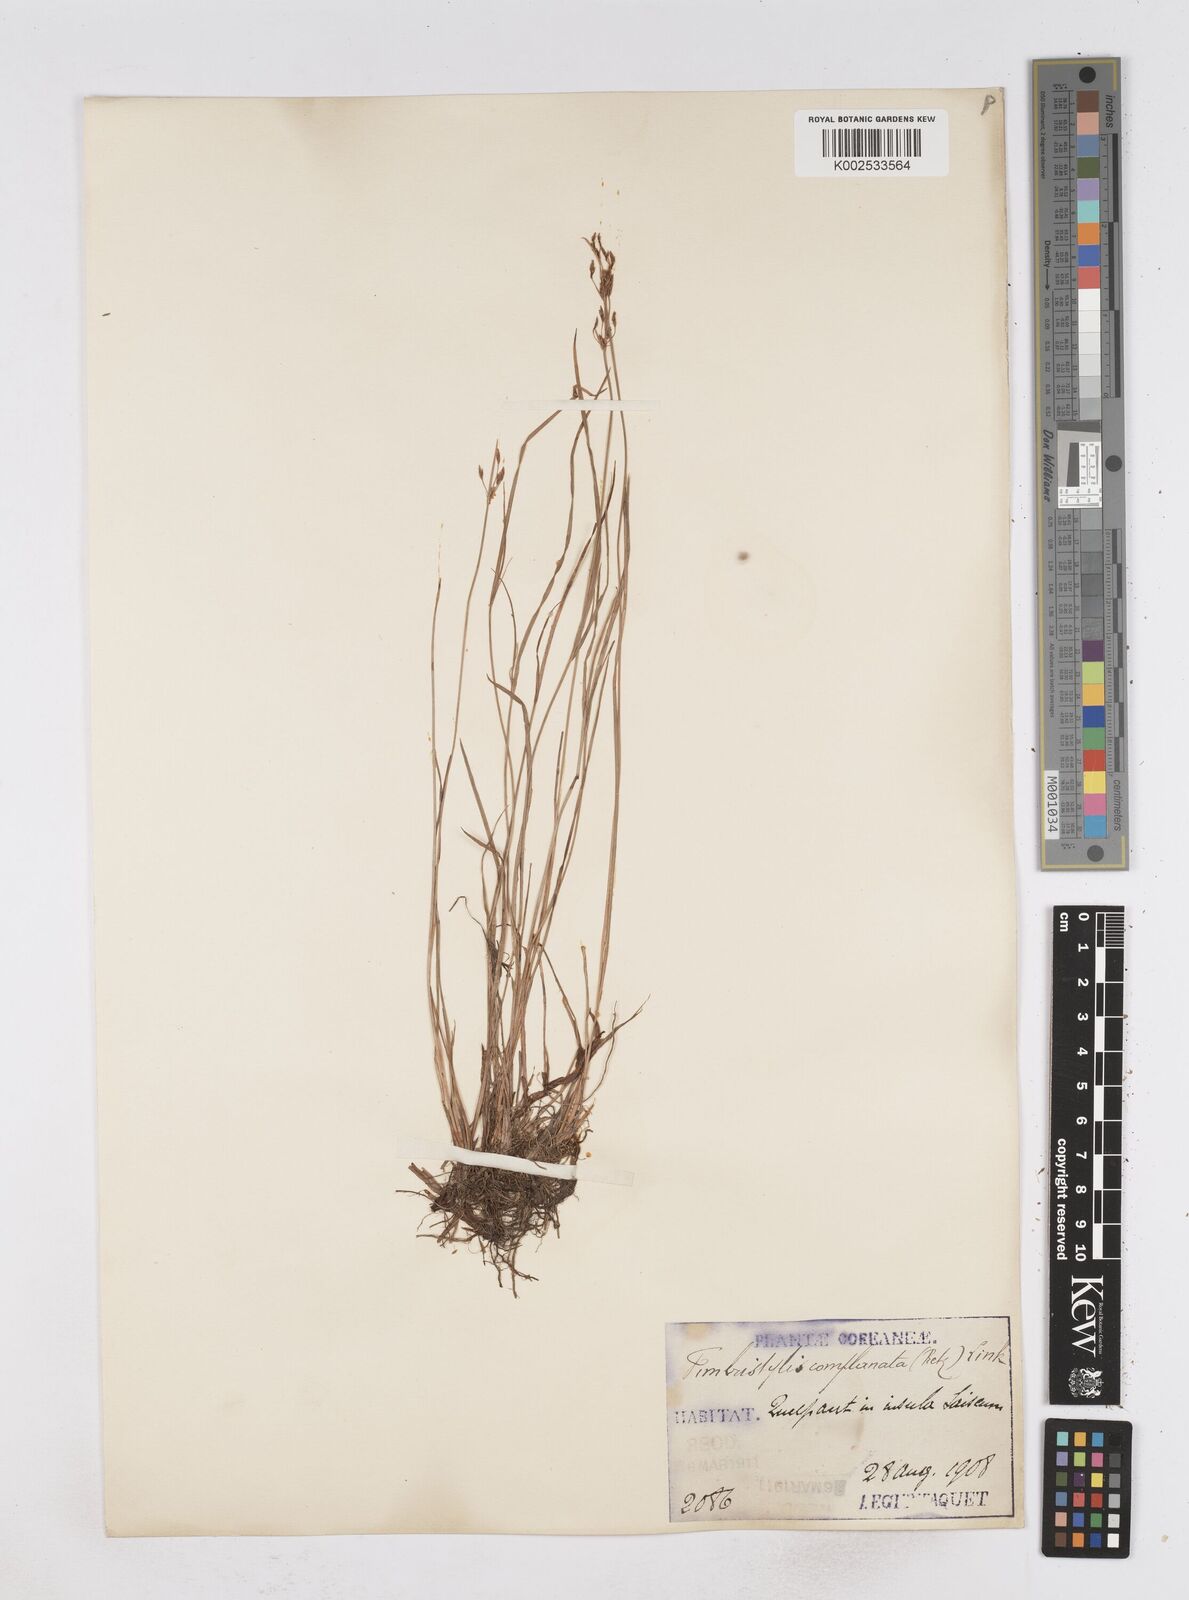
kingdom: Plantae
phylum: Tracheophyta
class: Liliopsida
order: Poales
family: Cyperaceae
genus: Fimbristylis
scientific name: Fimbristylis consanguinea
